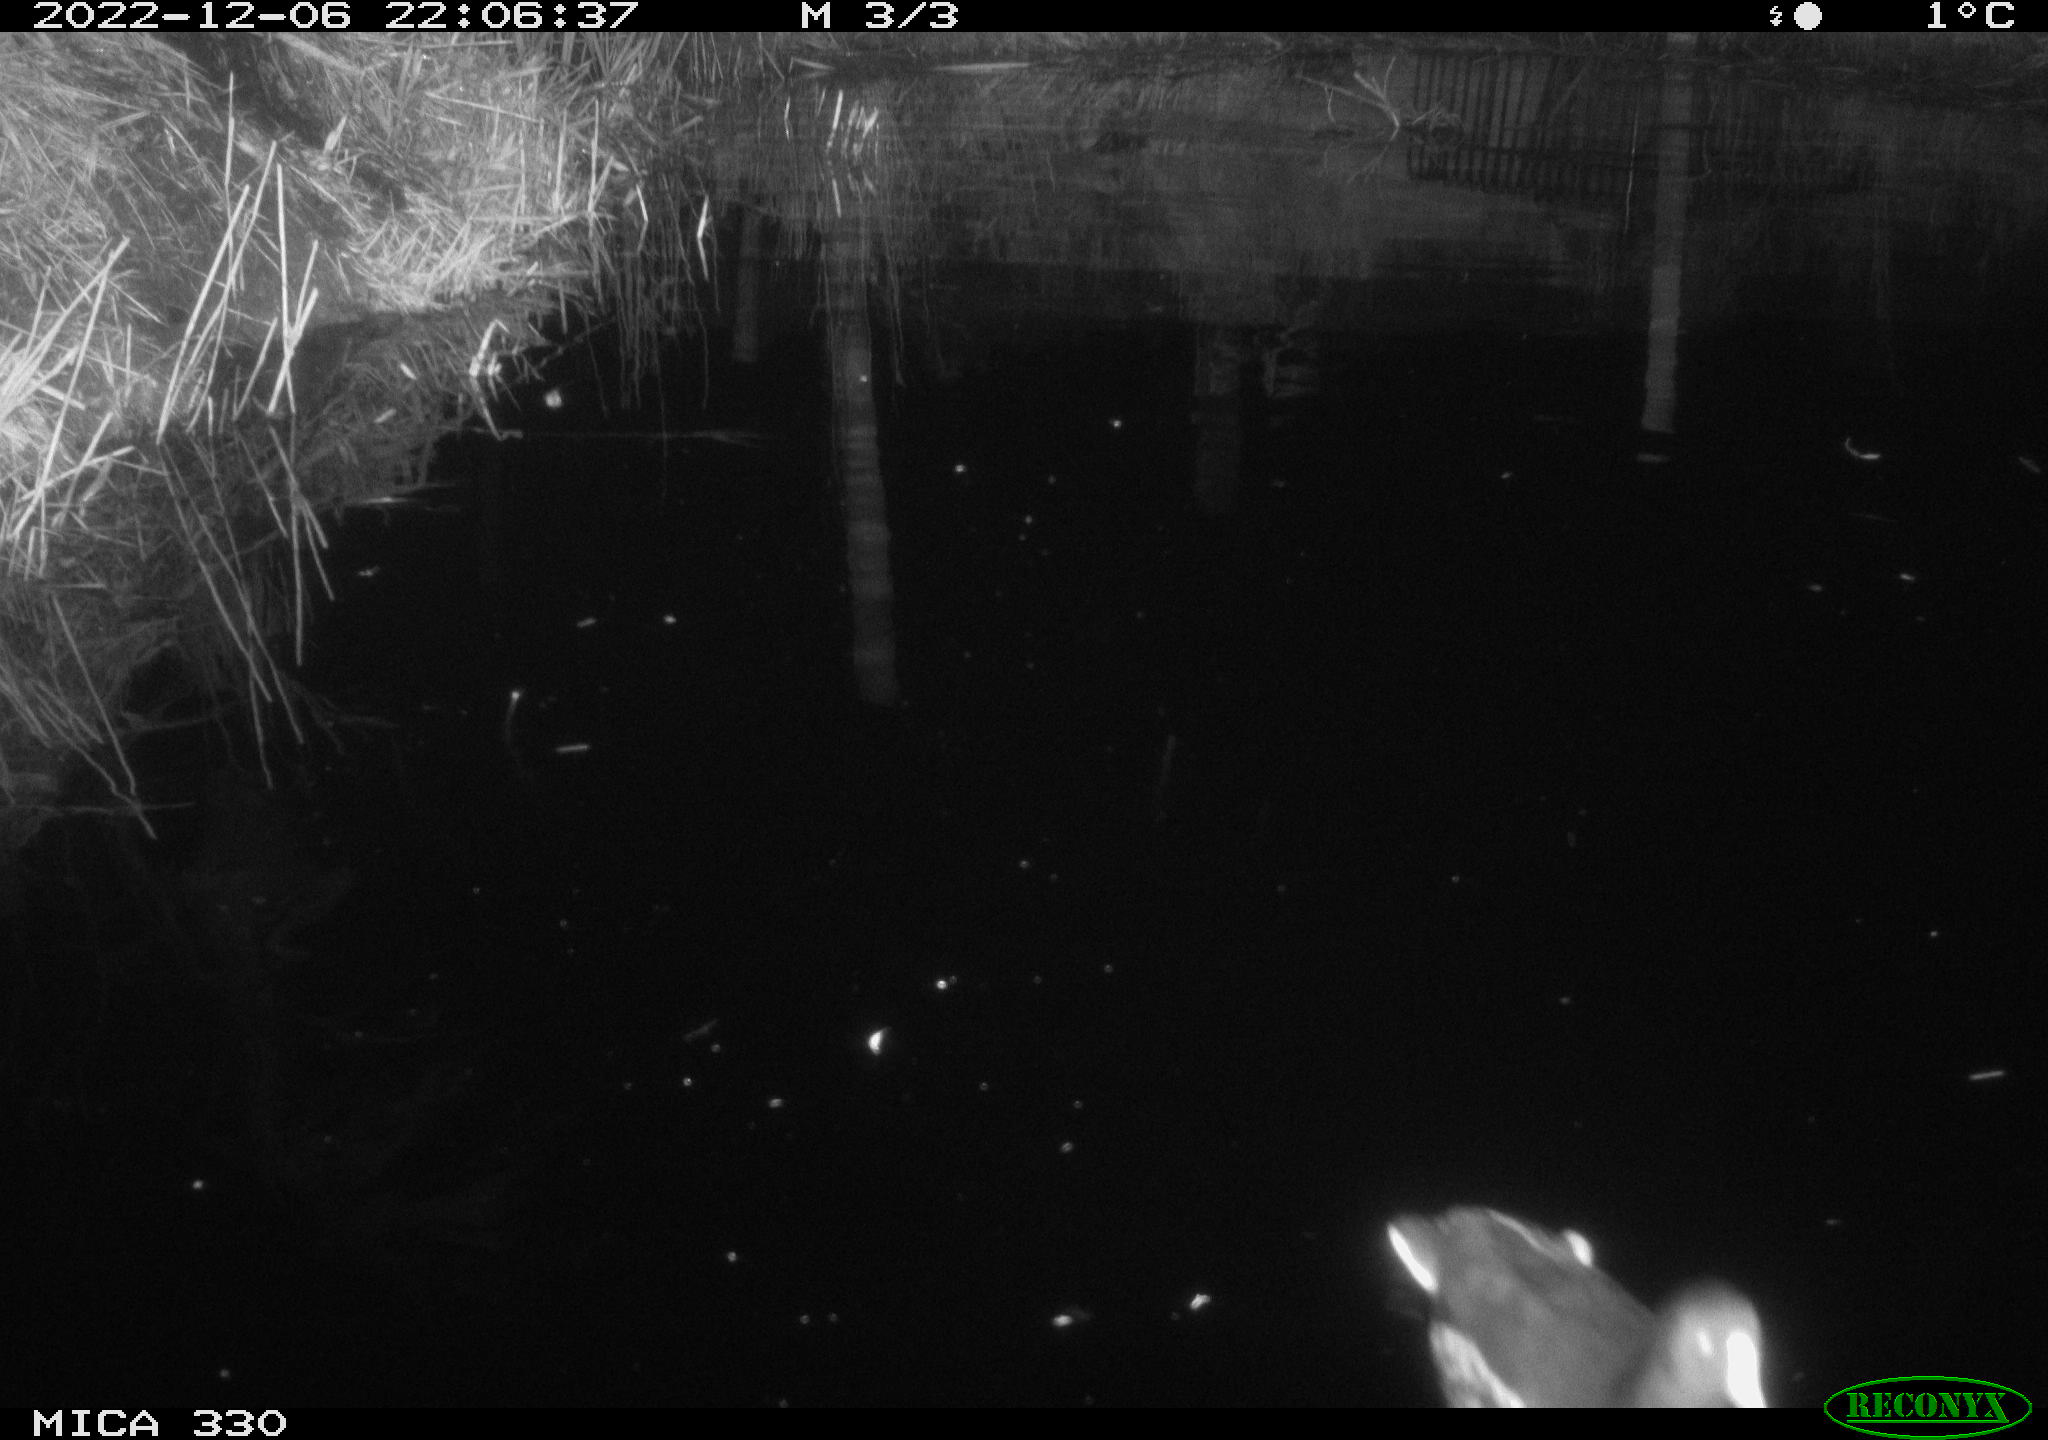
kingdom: Animalia
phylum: Chordata
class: Aves
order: Gruiformes
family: Rallidae
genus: Gallinula
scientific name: Gallinula chloropus
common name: Common moorhen
